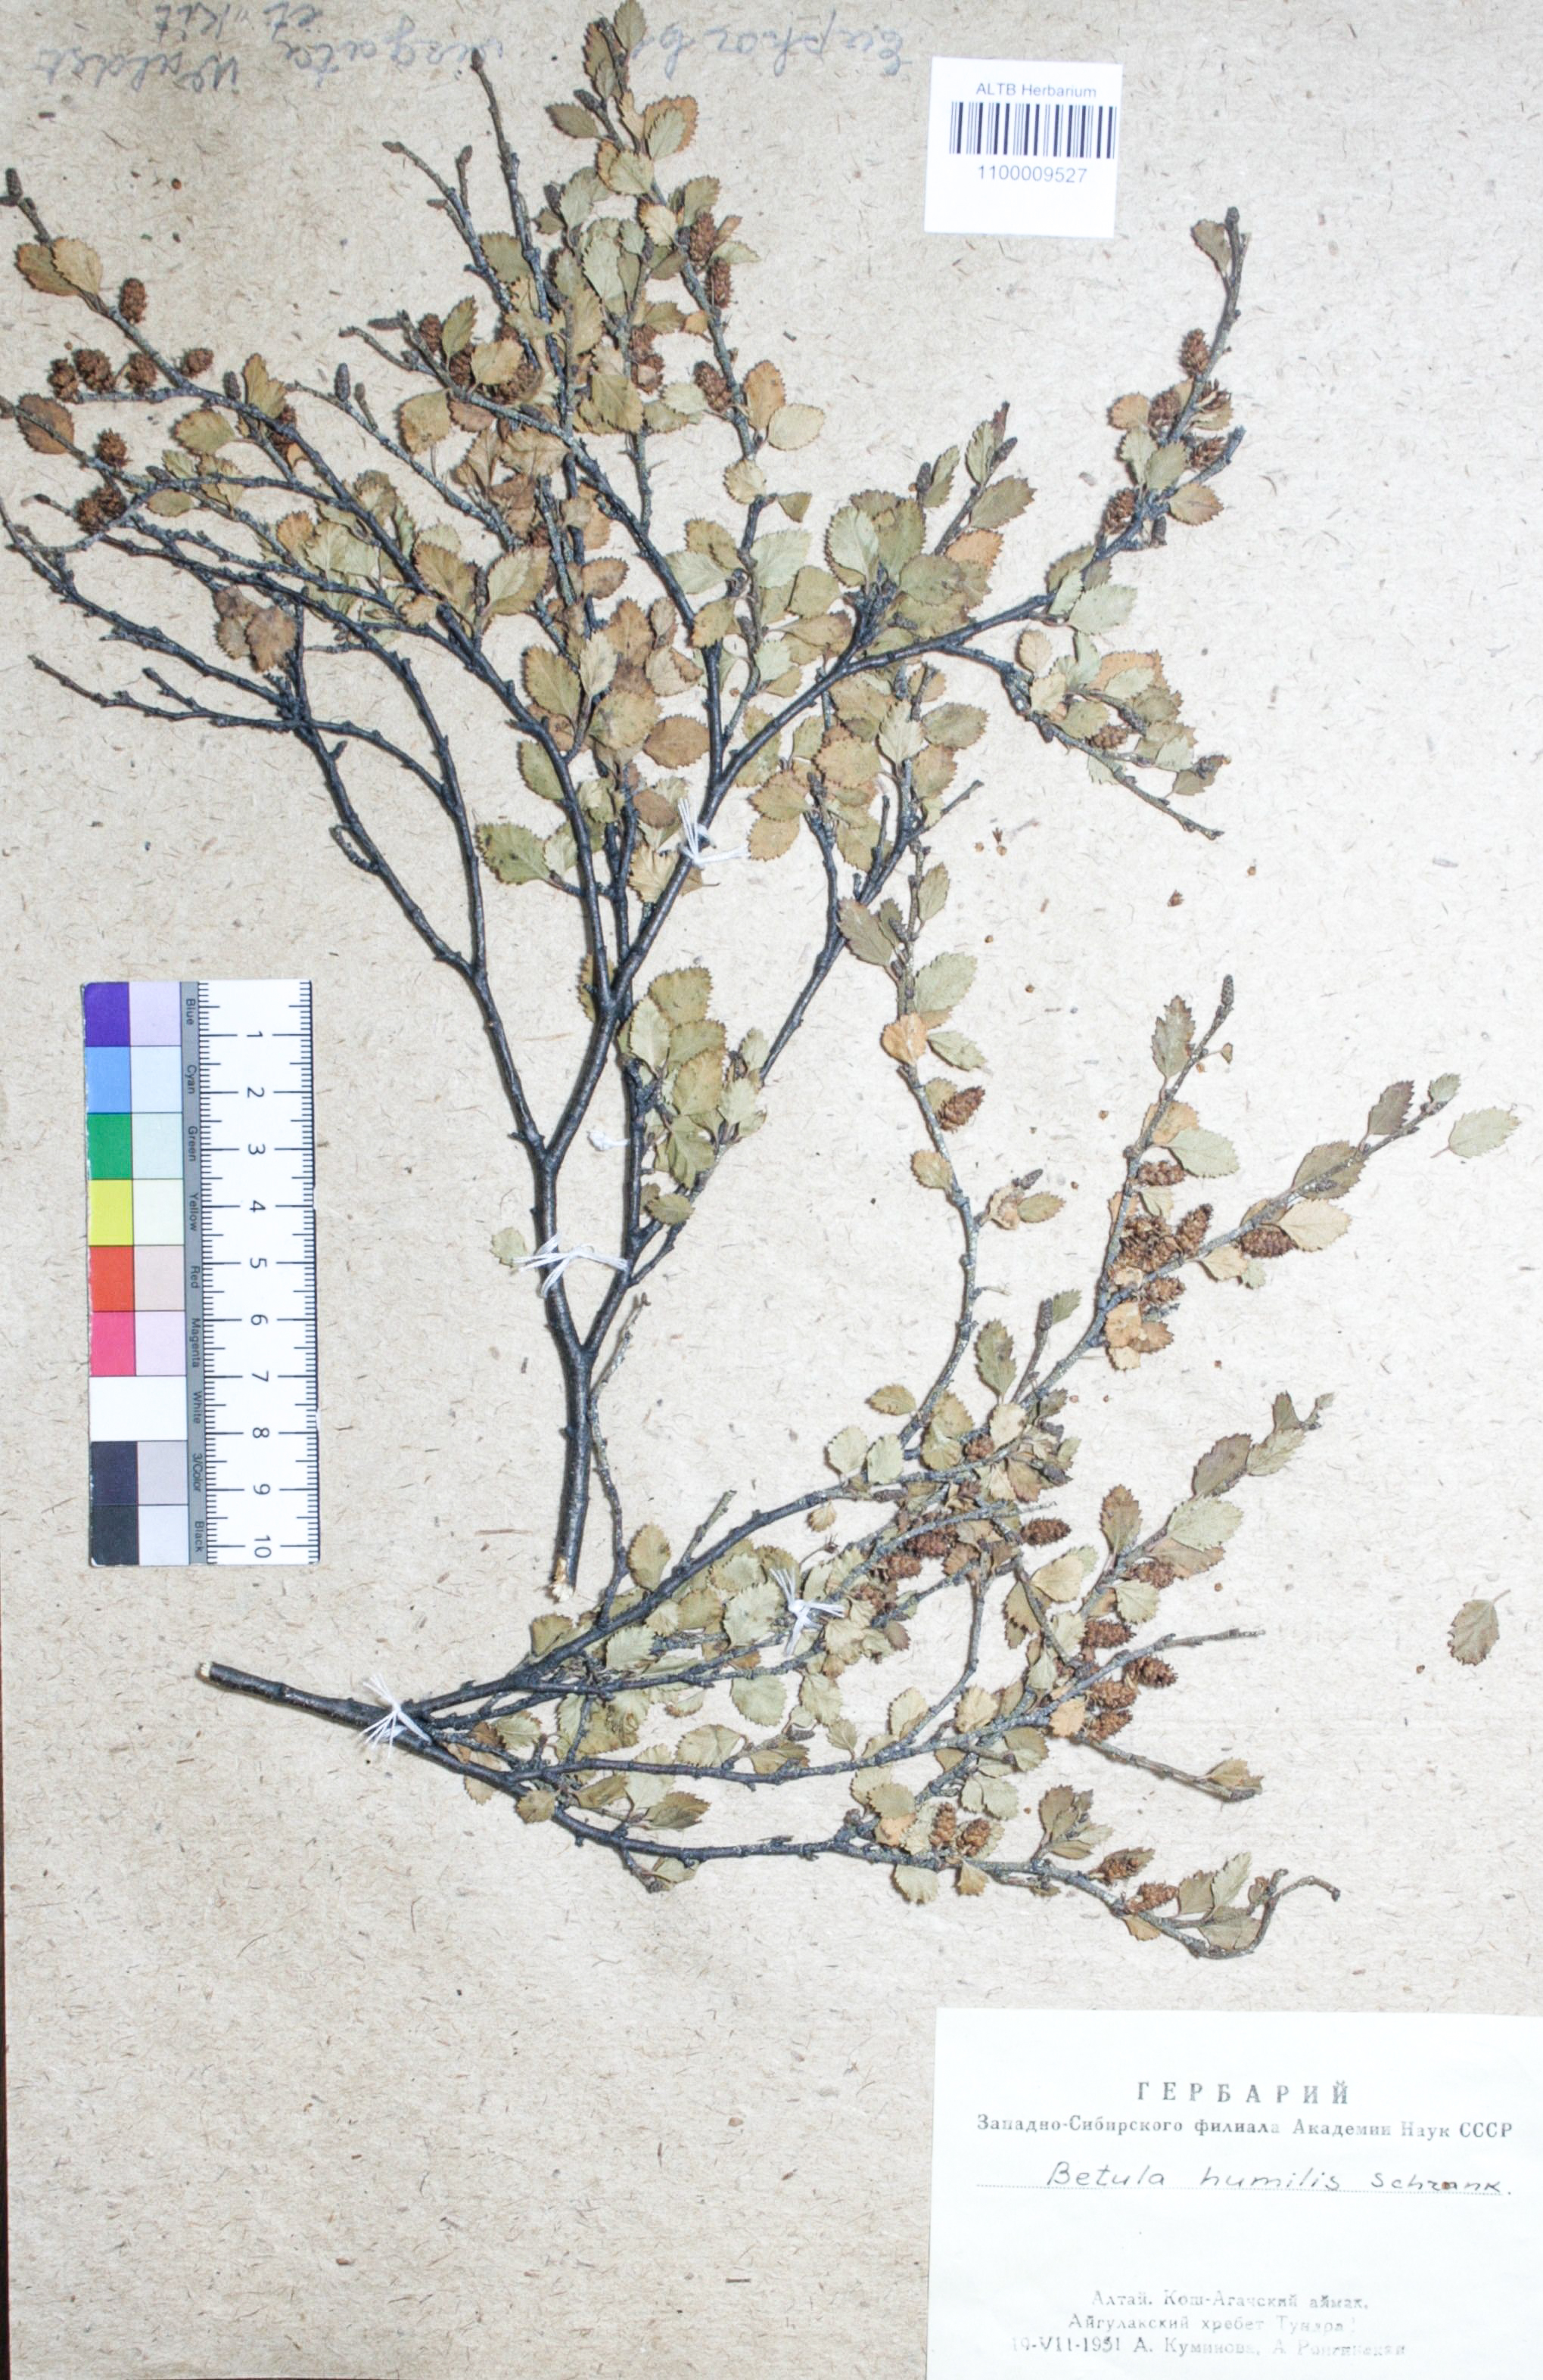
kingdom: Plantae
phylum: Tracheophyta
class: Magnoliopsida
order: Fagales
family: Betulaceae
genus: Betula
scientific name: Betula humilis
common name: Shrubby birch
